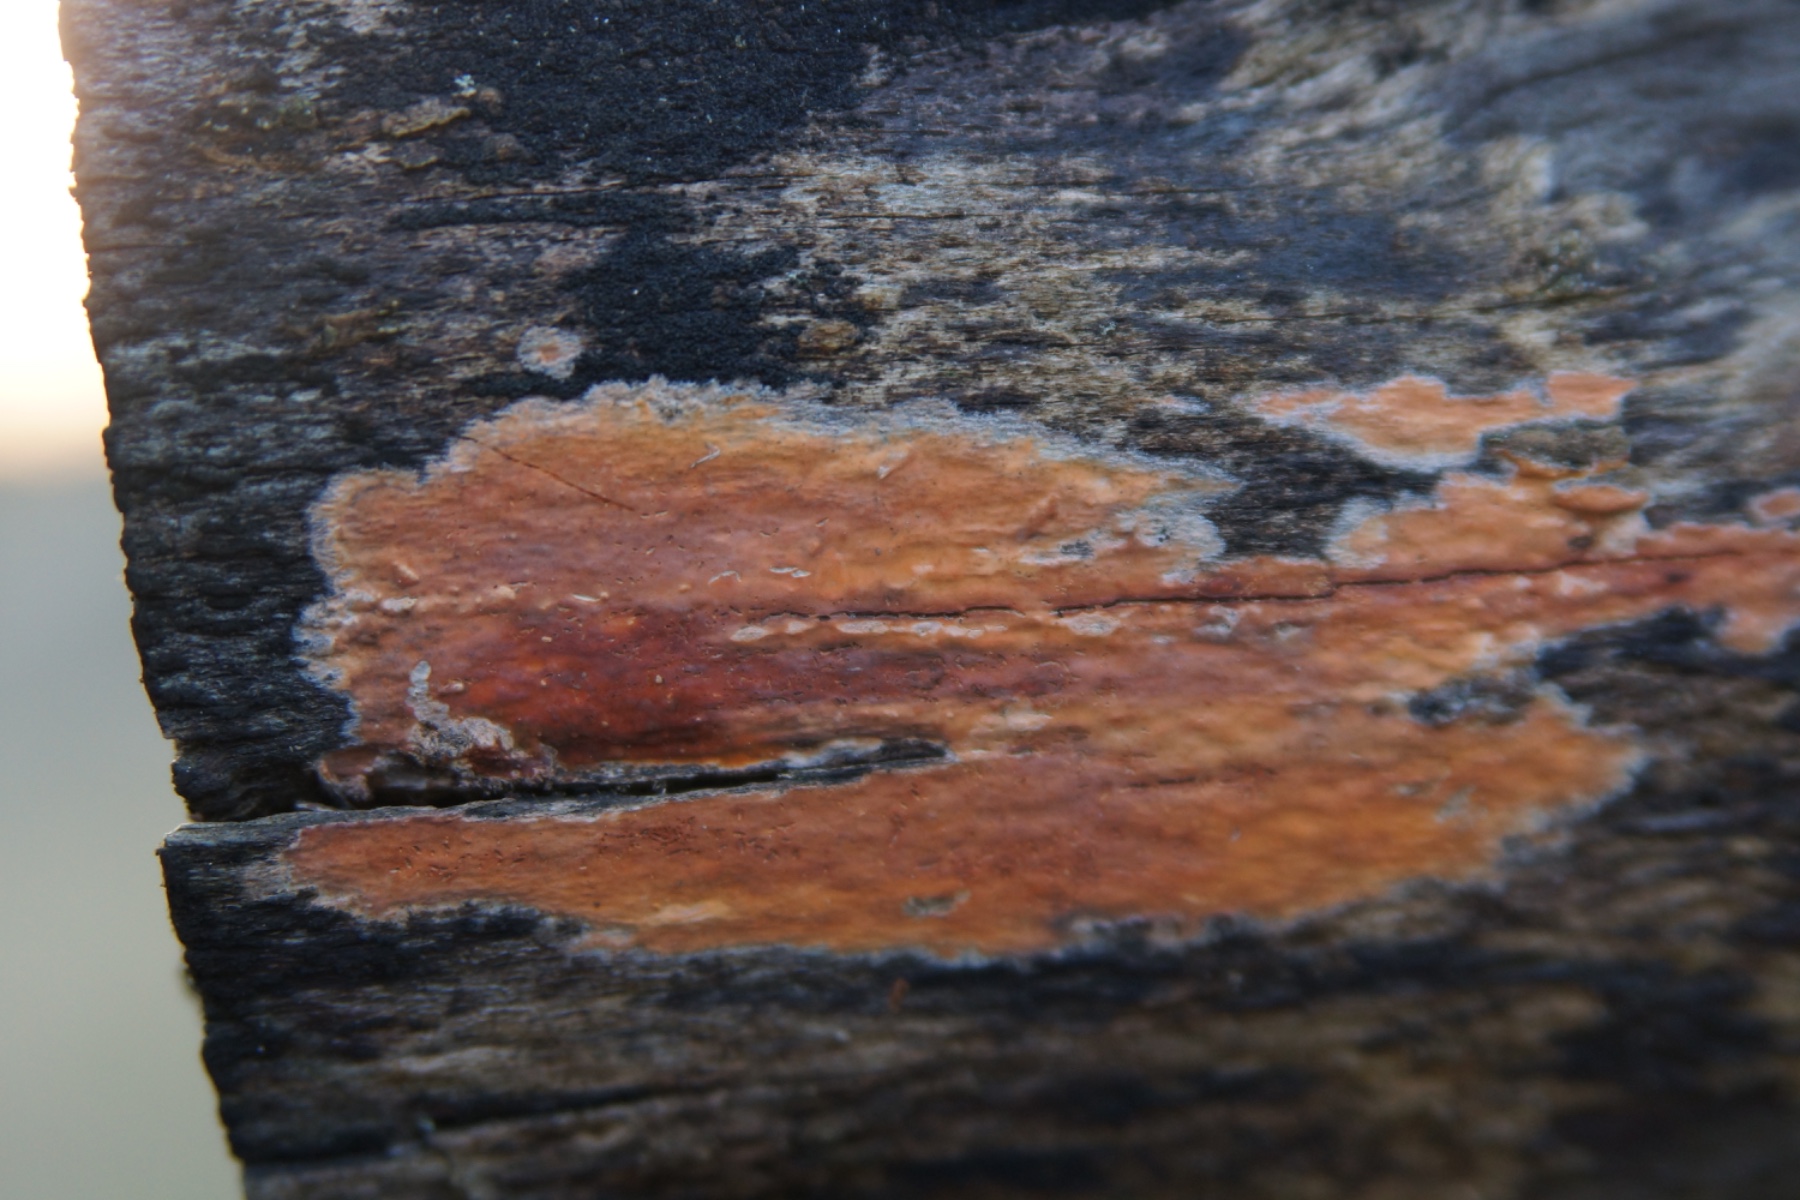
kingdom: Fungi
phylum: Basidiomycota
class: Agaricomycetes
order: Russulales
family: Peniophoraceae
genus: Peniophora
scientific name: Peniophora incarnata
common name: laksefarvet voksskind
